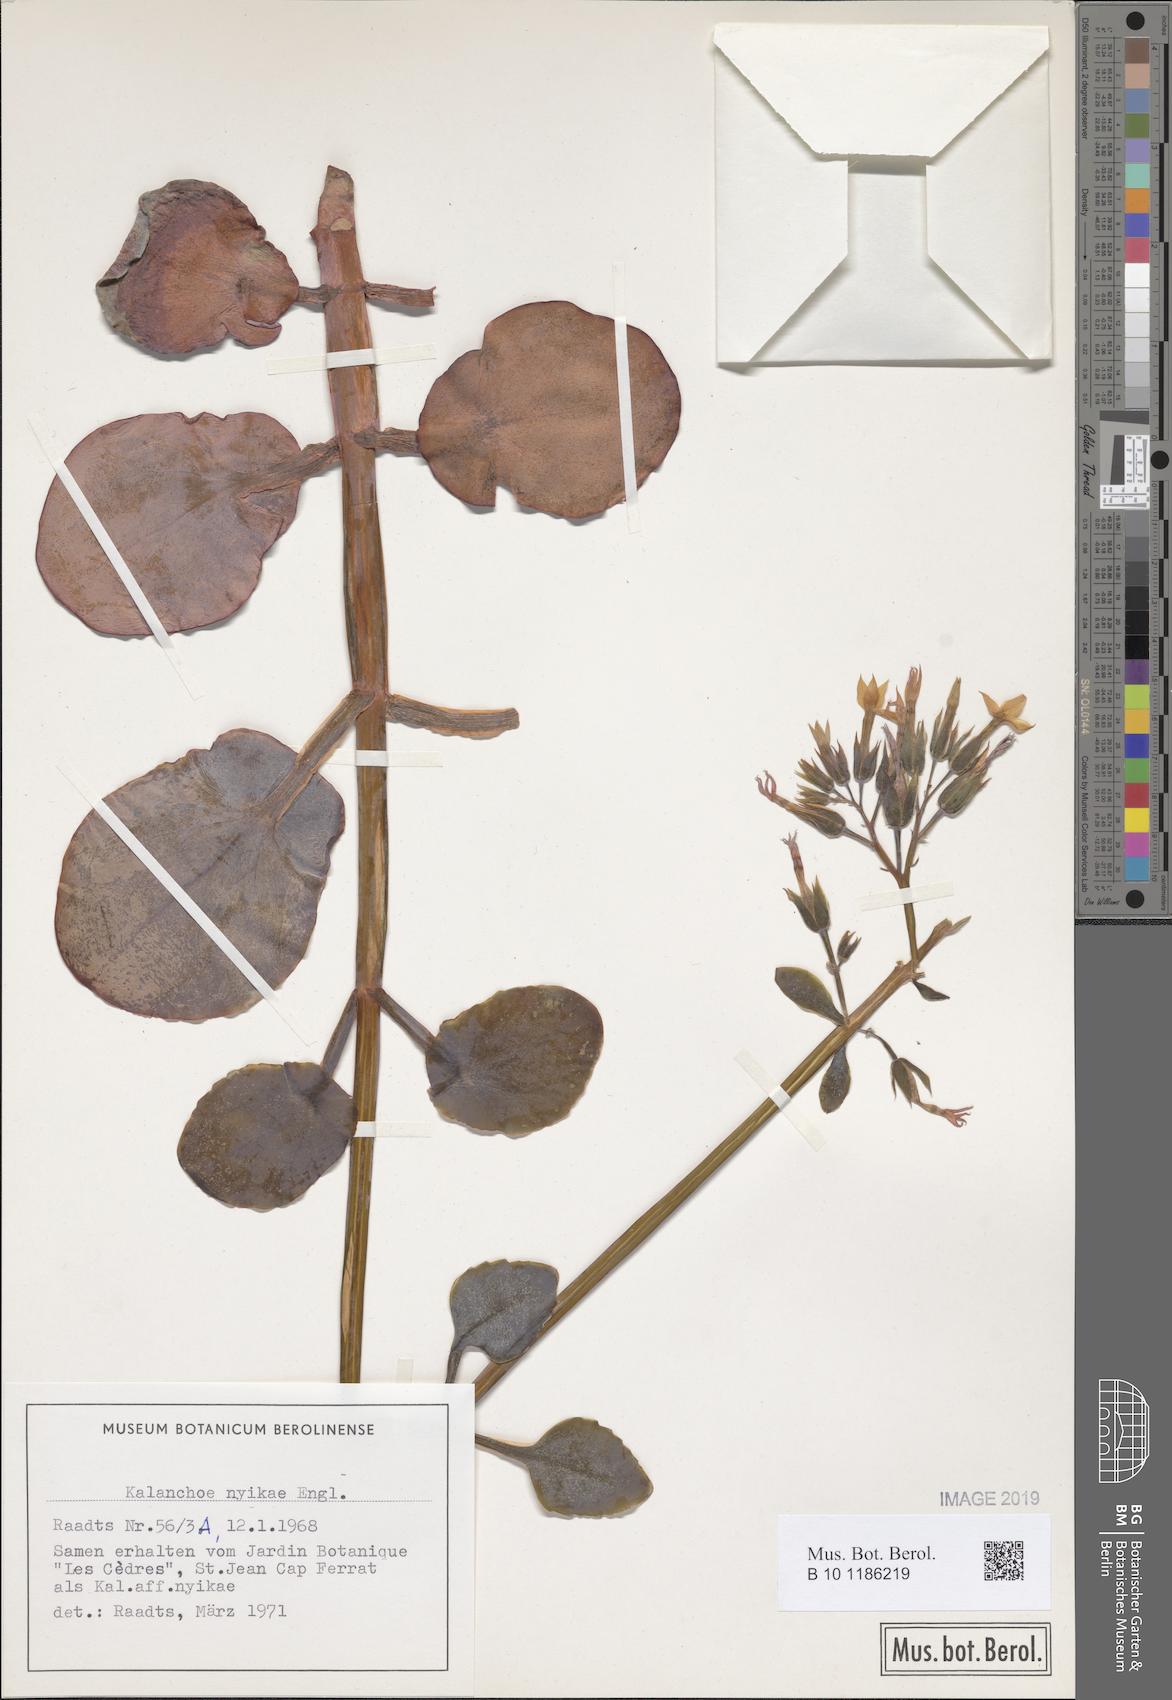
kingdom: Plantae
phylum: Tracheophyta
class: Magnoliopsida
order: Saxifragales
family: Crassulaceae
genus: Kalanchoe
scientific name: Kalanchoe nyikae
